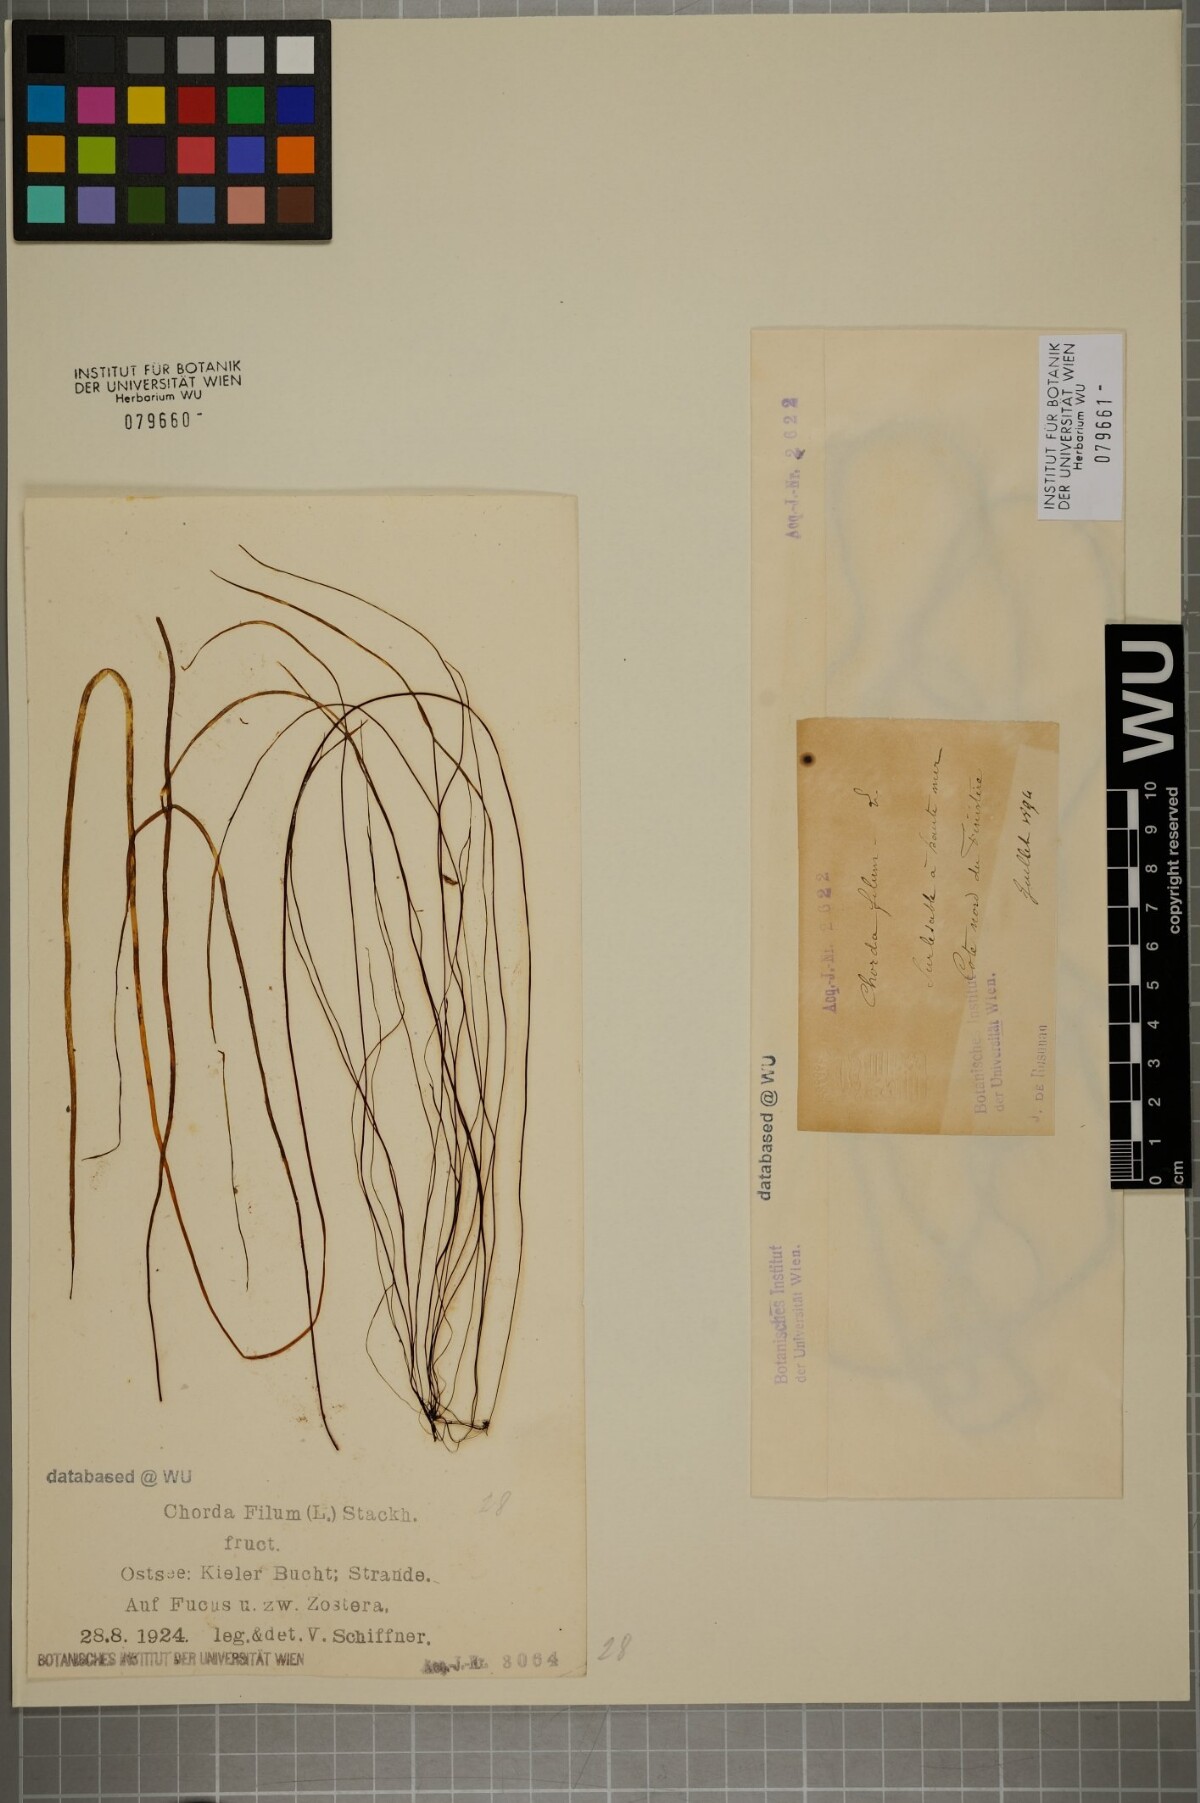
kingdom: Chromista
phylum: Ochrophyta
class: Phaeophyceae
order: Laminariales
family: Chordaceae
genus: Chorda
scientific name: Chorda filum
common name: Mermaid's tresses
